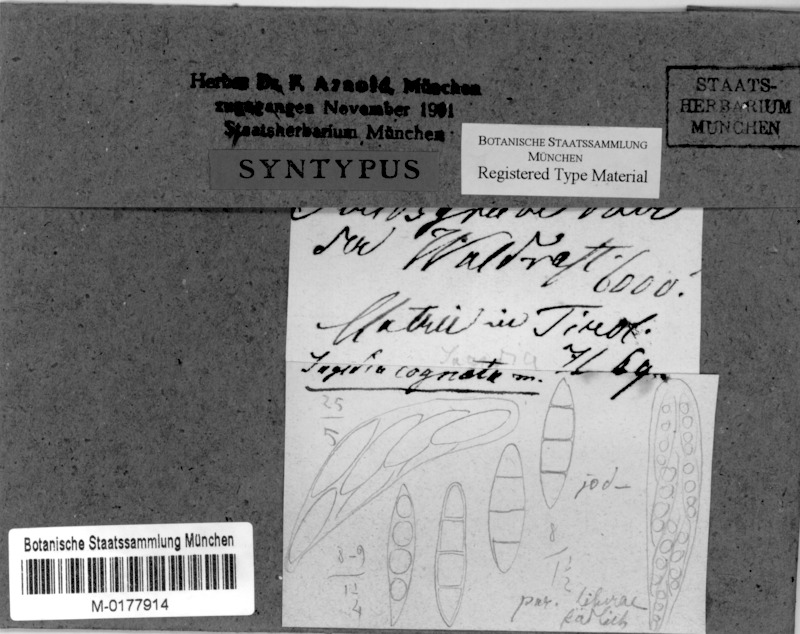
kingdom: Fungi
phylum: Ascomycota
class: Dothideomycetes
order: Dothideales
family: Saccotheciaceae
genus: Metasphaeria
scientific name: Metasphaeria cognata
